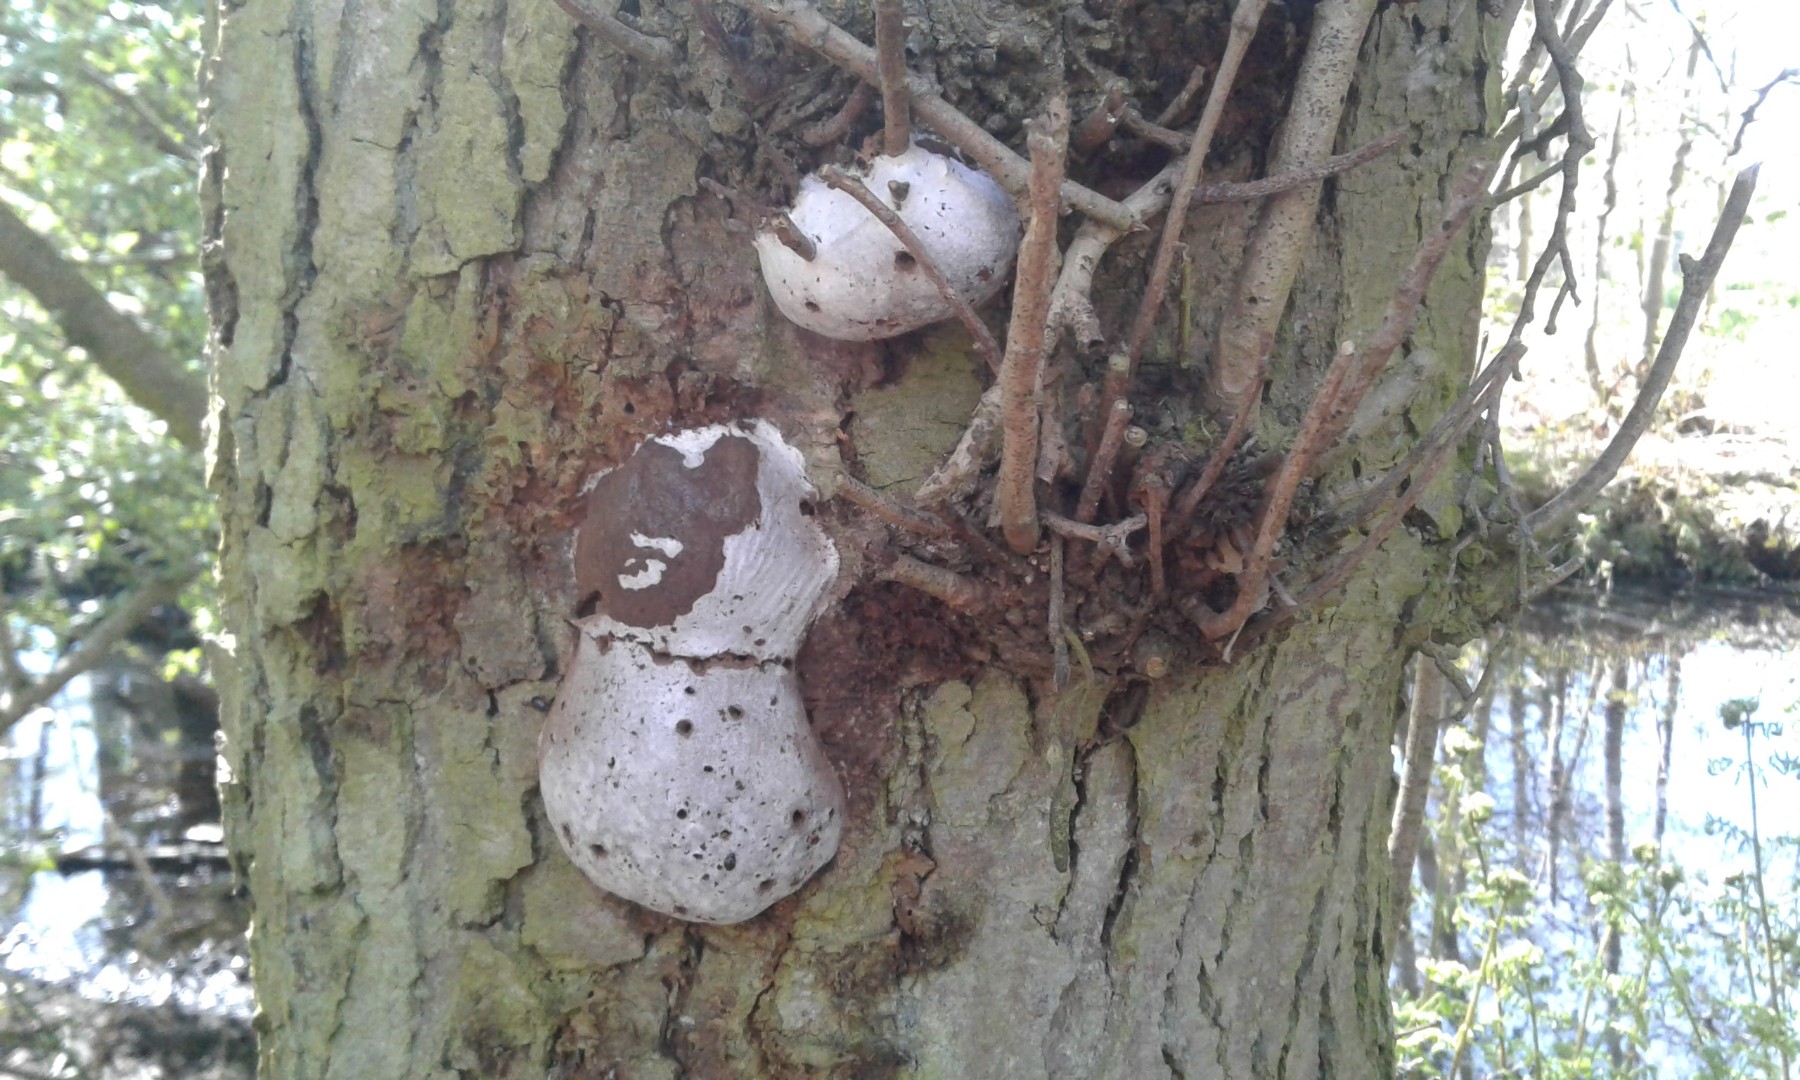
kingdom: Protozoa
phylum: Mycetozoa
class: Myxomycetes
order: Cribrariales
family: Tubiferaceae
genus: Reticularia
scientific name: Reticularia lycoperdon
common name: skinnende støvpude
